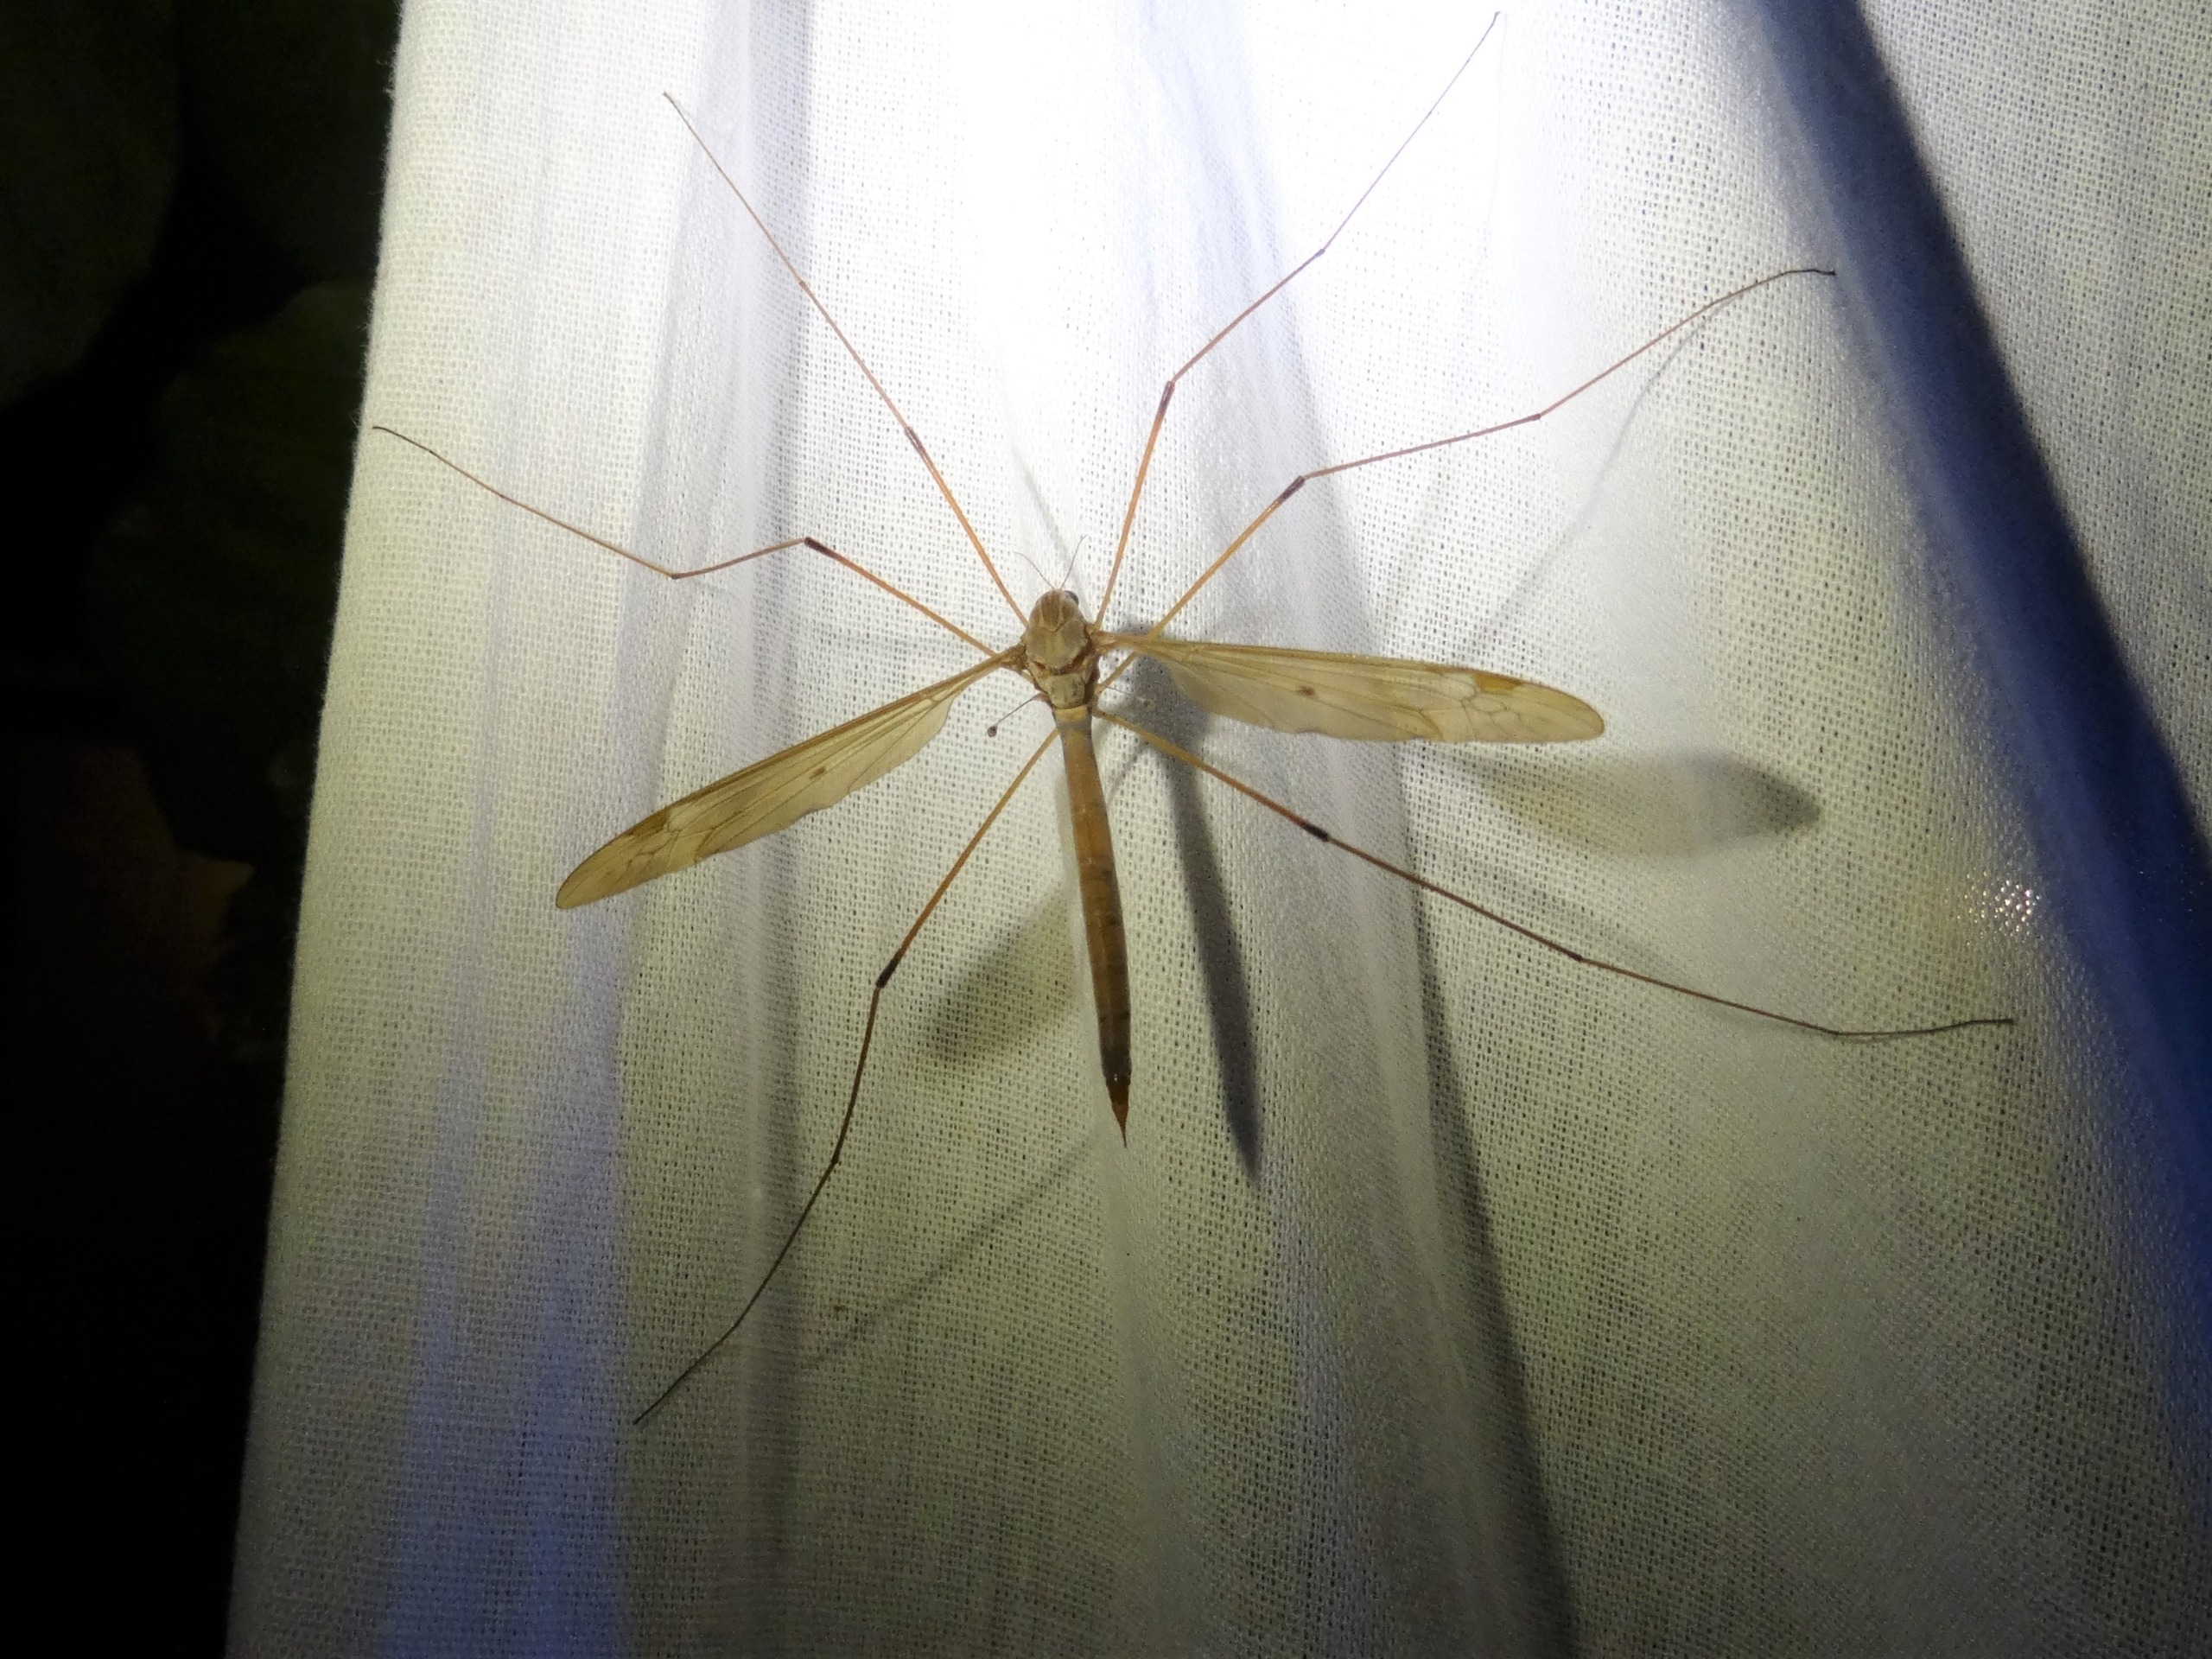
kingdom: Animalia
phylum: Arthropoda
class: Insecta
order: Diptera
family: Tipulidae
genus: Tipula
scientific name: Tipula fulvipennis
